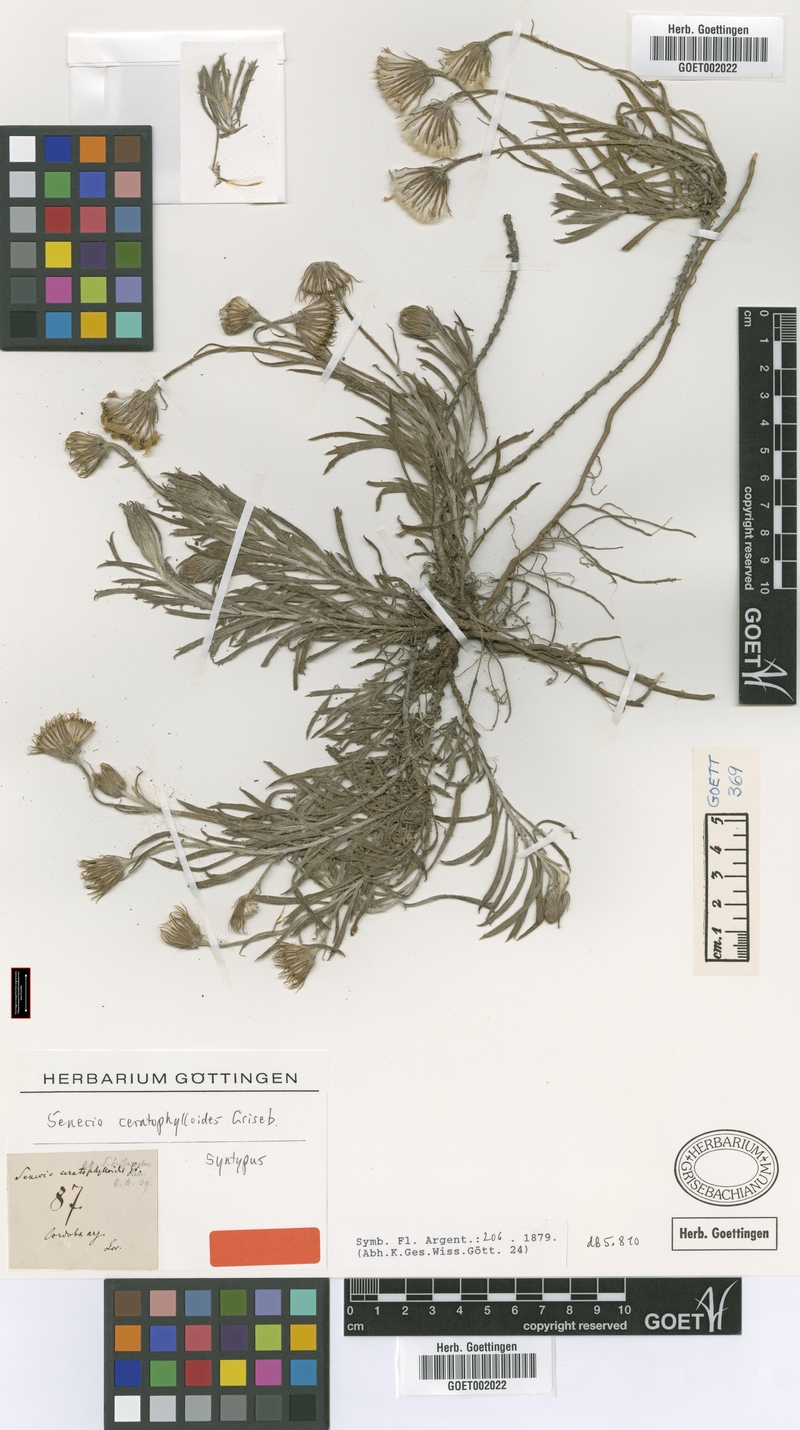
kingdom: Plantae
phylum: Tracheophyta
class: Magnoliopsida
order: Asterales
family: Asteraceae
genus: Senecio
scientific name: Senecio ceratophylloides
